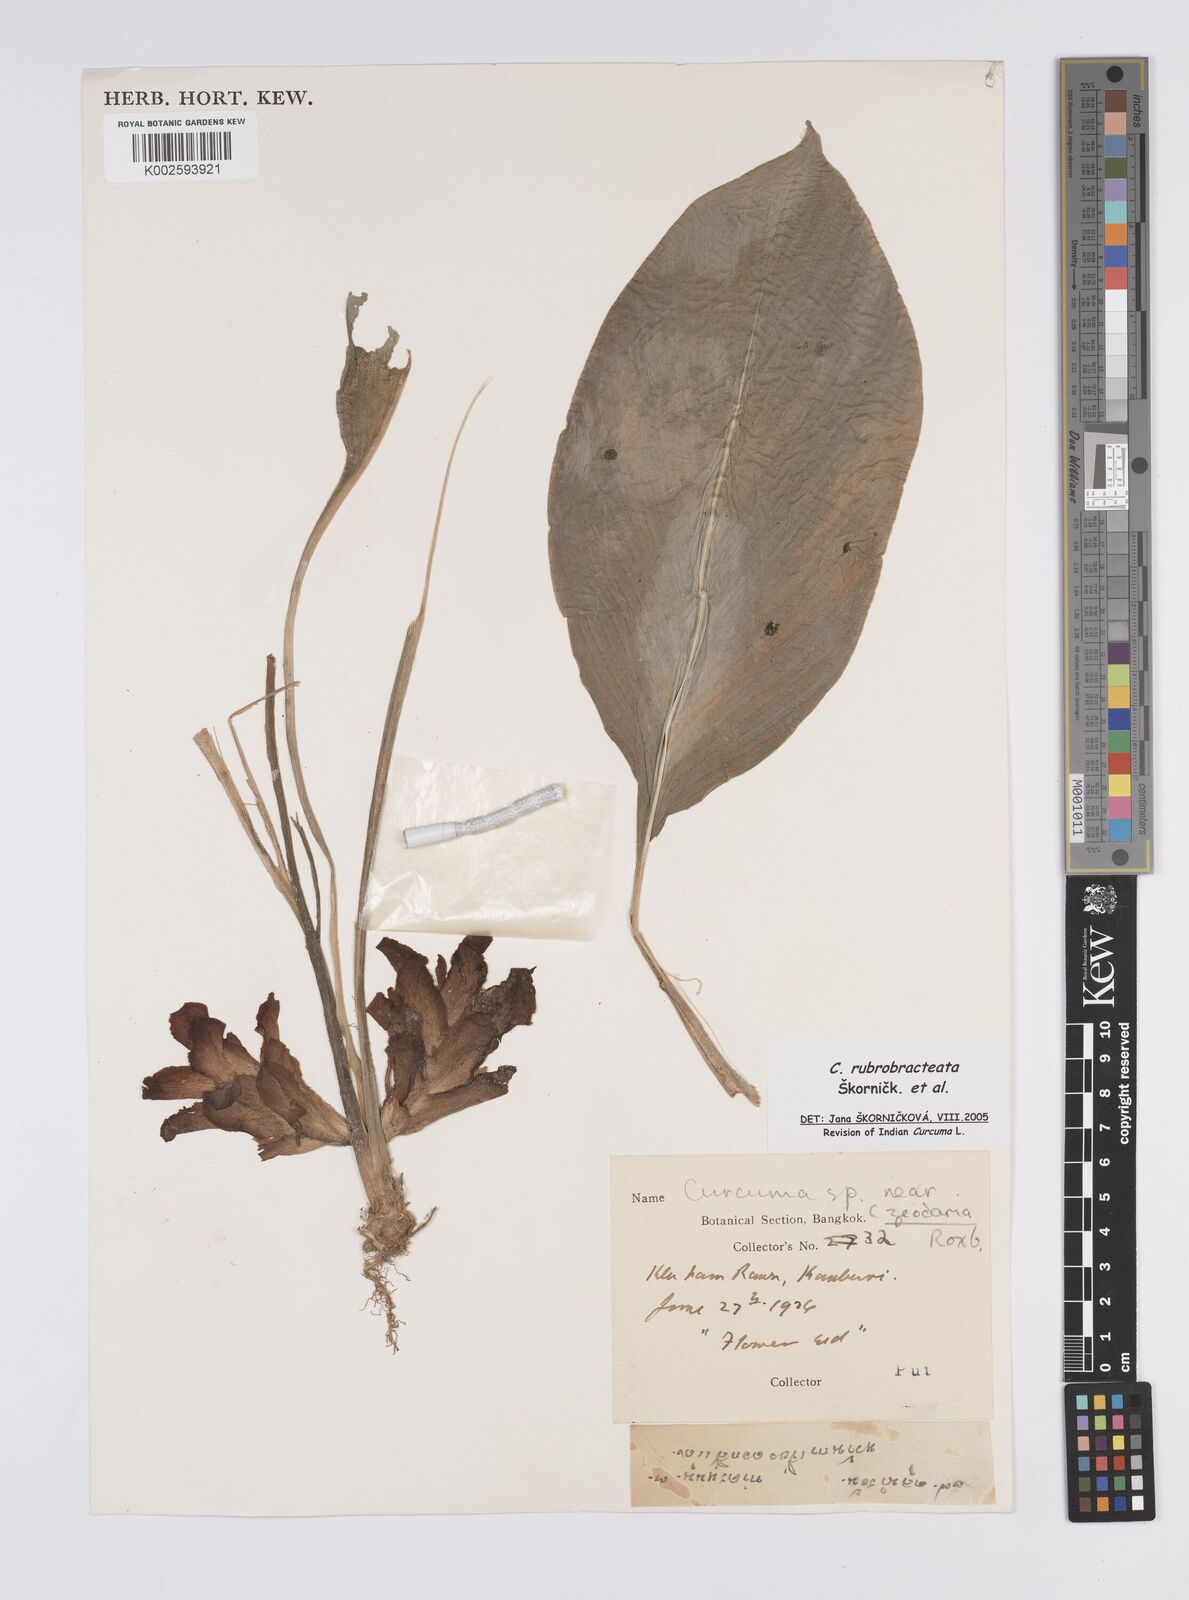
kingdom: Plantae
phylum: Tracheophyta
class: Liliopsida
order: Zingiberales
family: Zingiberaceae
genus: Curcuma
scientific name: Curcuma rubrobracteata
